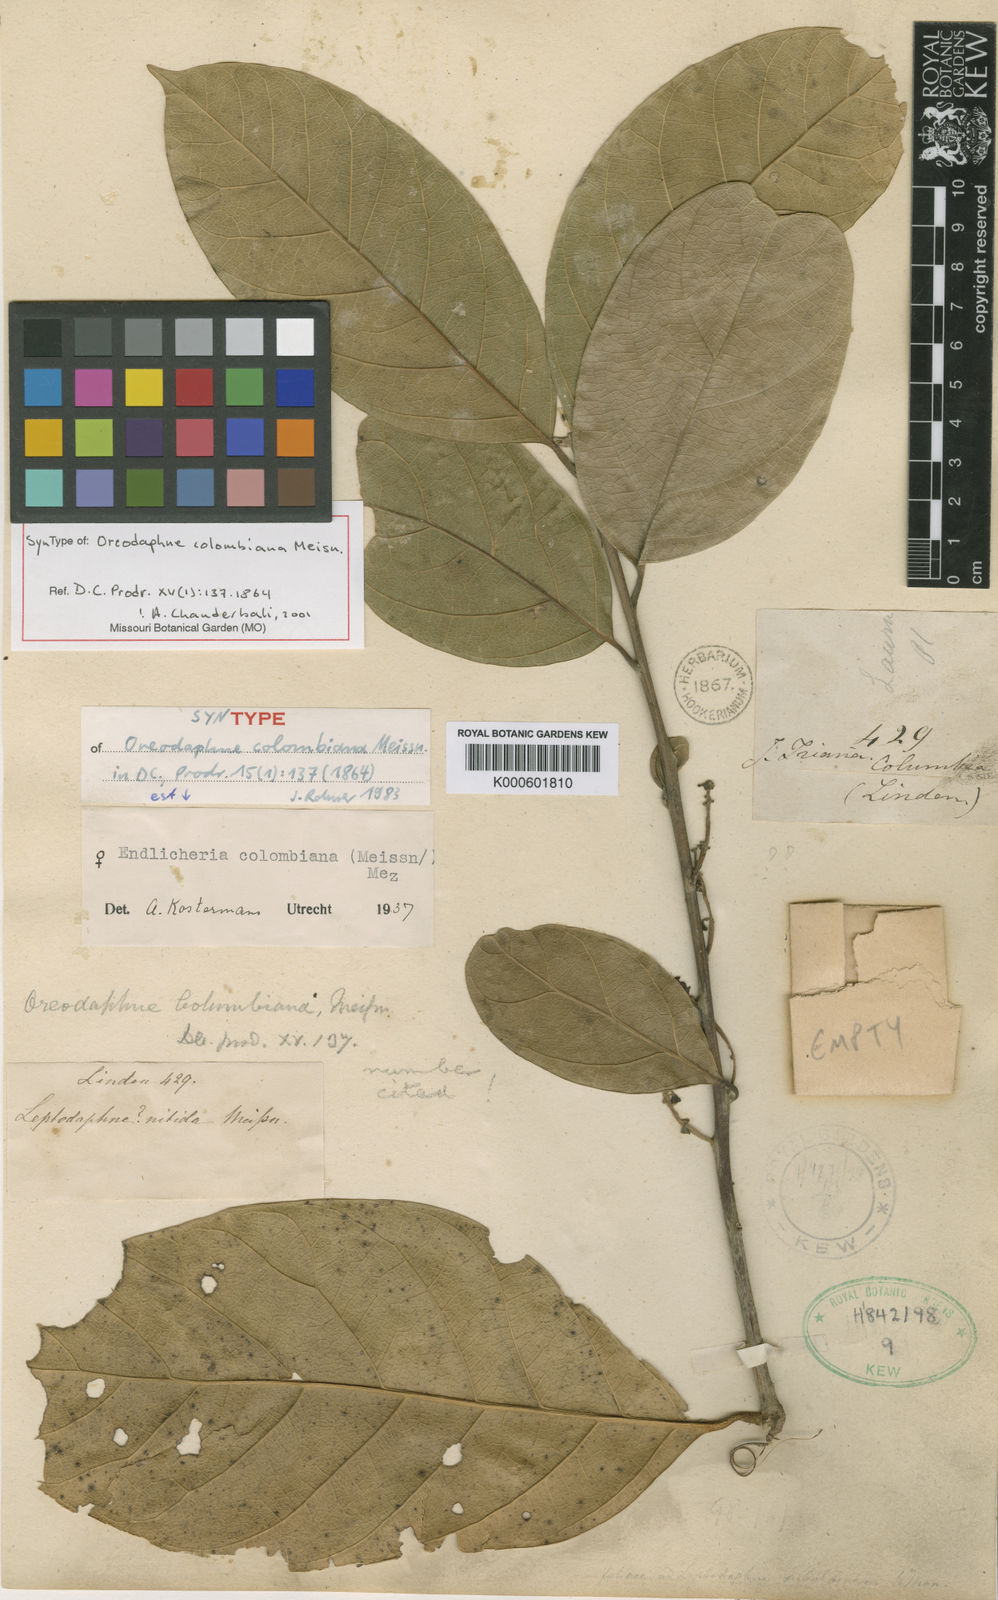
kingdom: Plantae
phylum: Tracheophyta
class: Magnoliopsida
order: Laurales
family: Lauraceae
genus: Endlicheria
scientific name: Endlicheria columbiana
